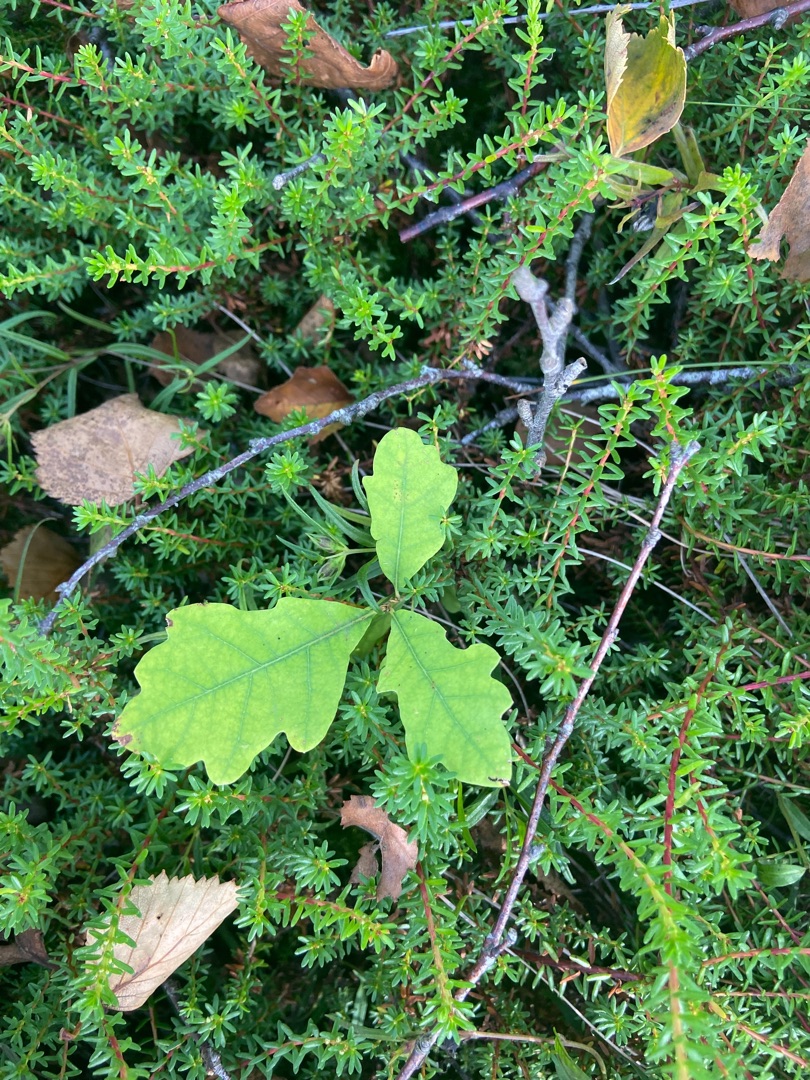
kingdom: Plantae
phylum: Tracheophyta
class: Magnoliopsida
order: Fagales
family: Fagaceae
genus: Quercus
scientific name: Quercus robur
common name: Stilk-eg/almindelig eg
